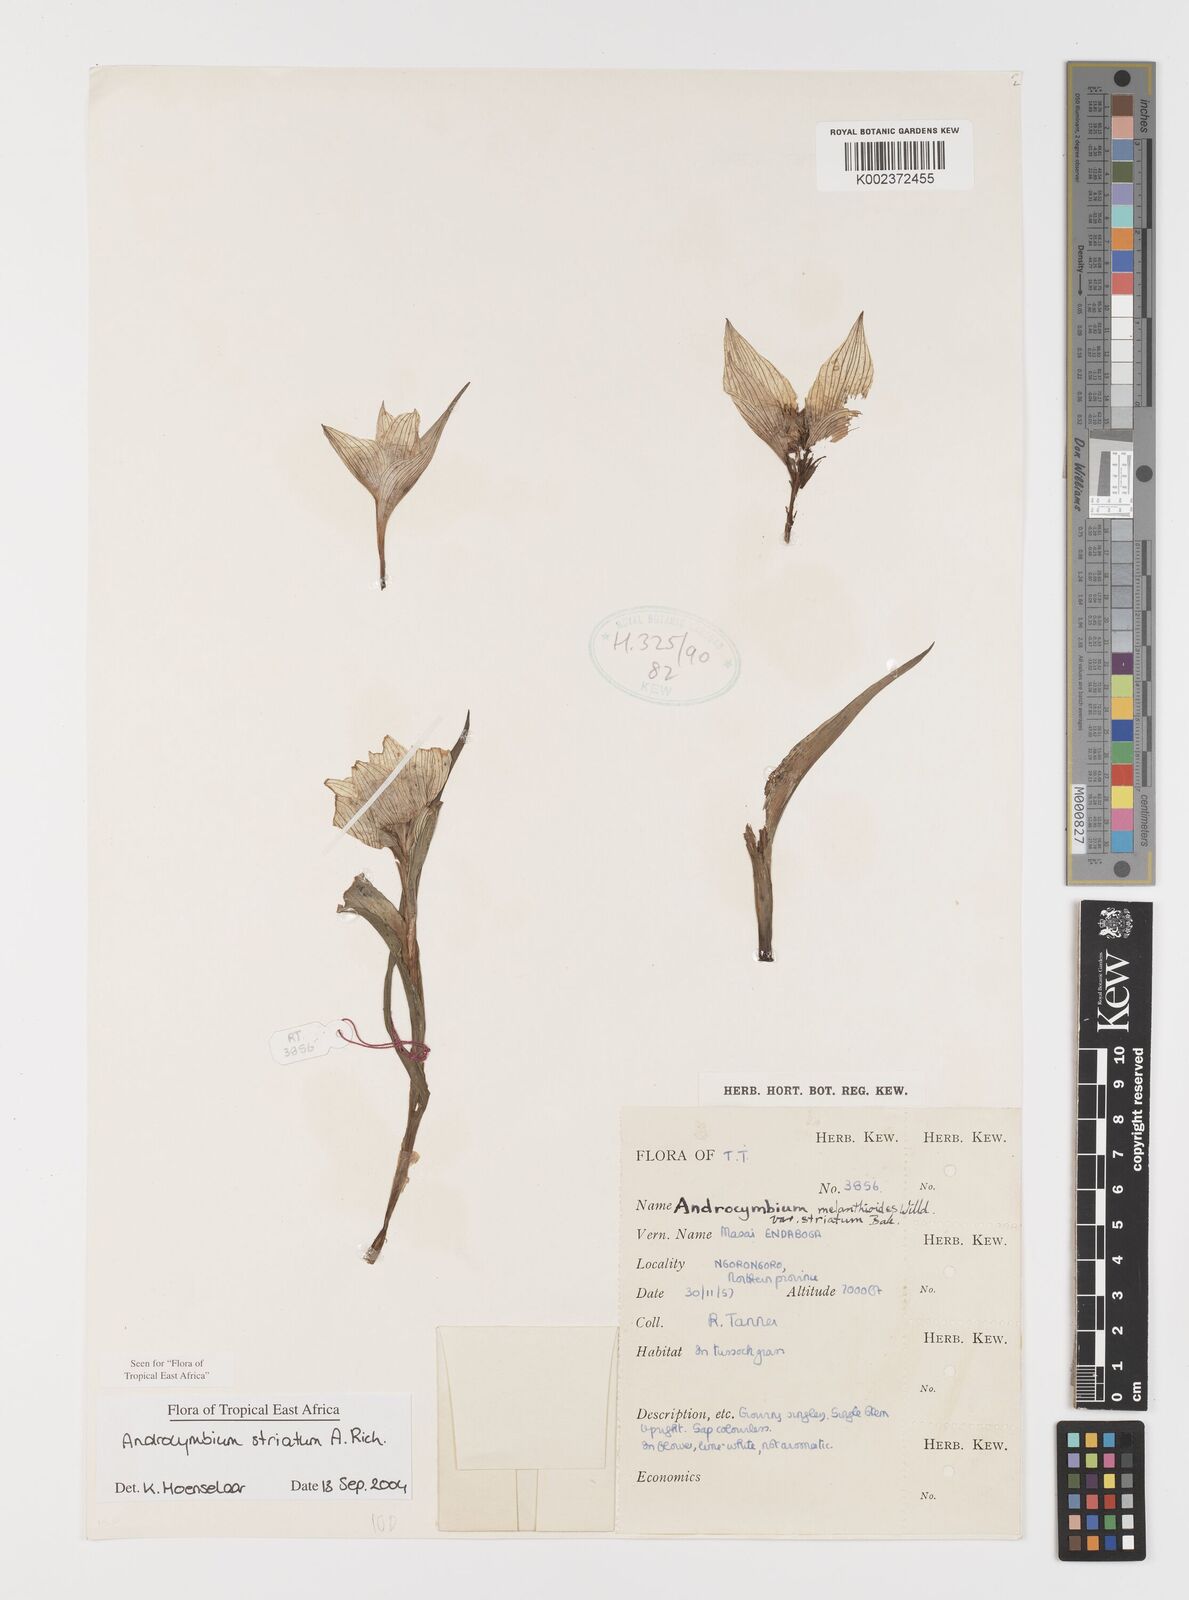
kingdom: Plantae
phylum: Tracheophyta
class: Liliopsida
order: Liliales
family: Colchicaceae
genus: Colchicum
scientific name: Colchicum striatum
